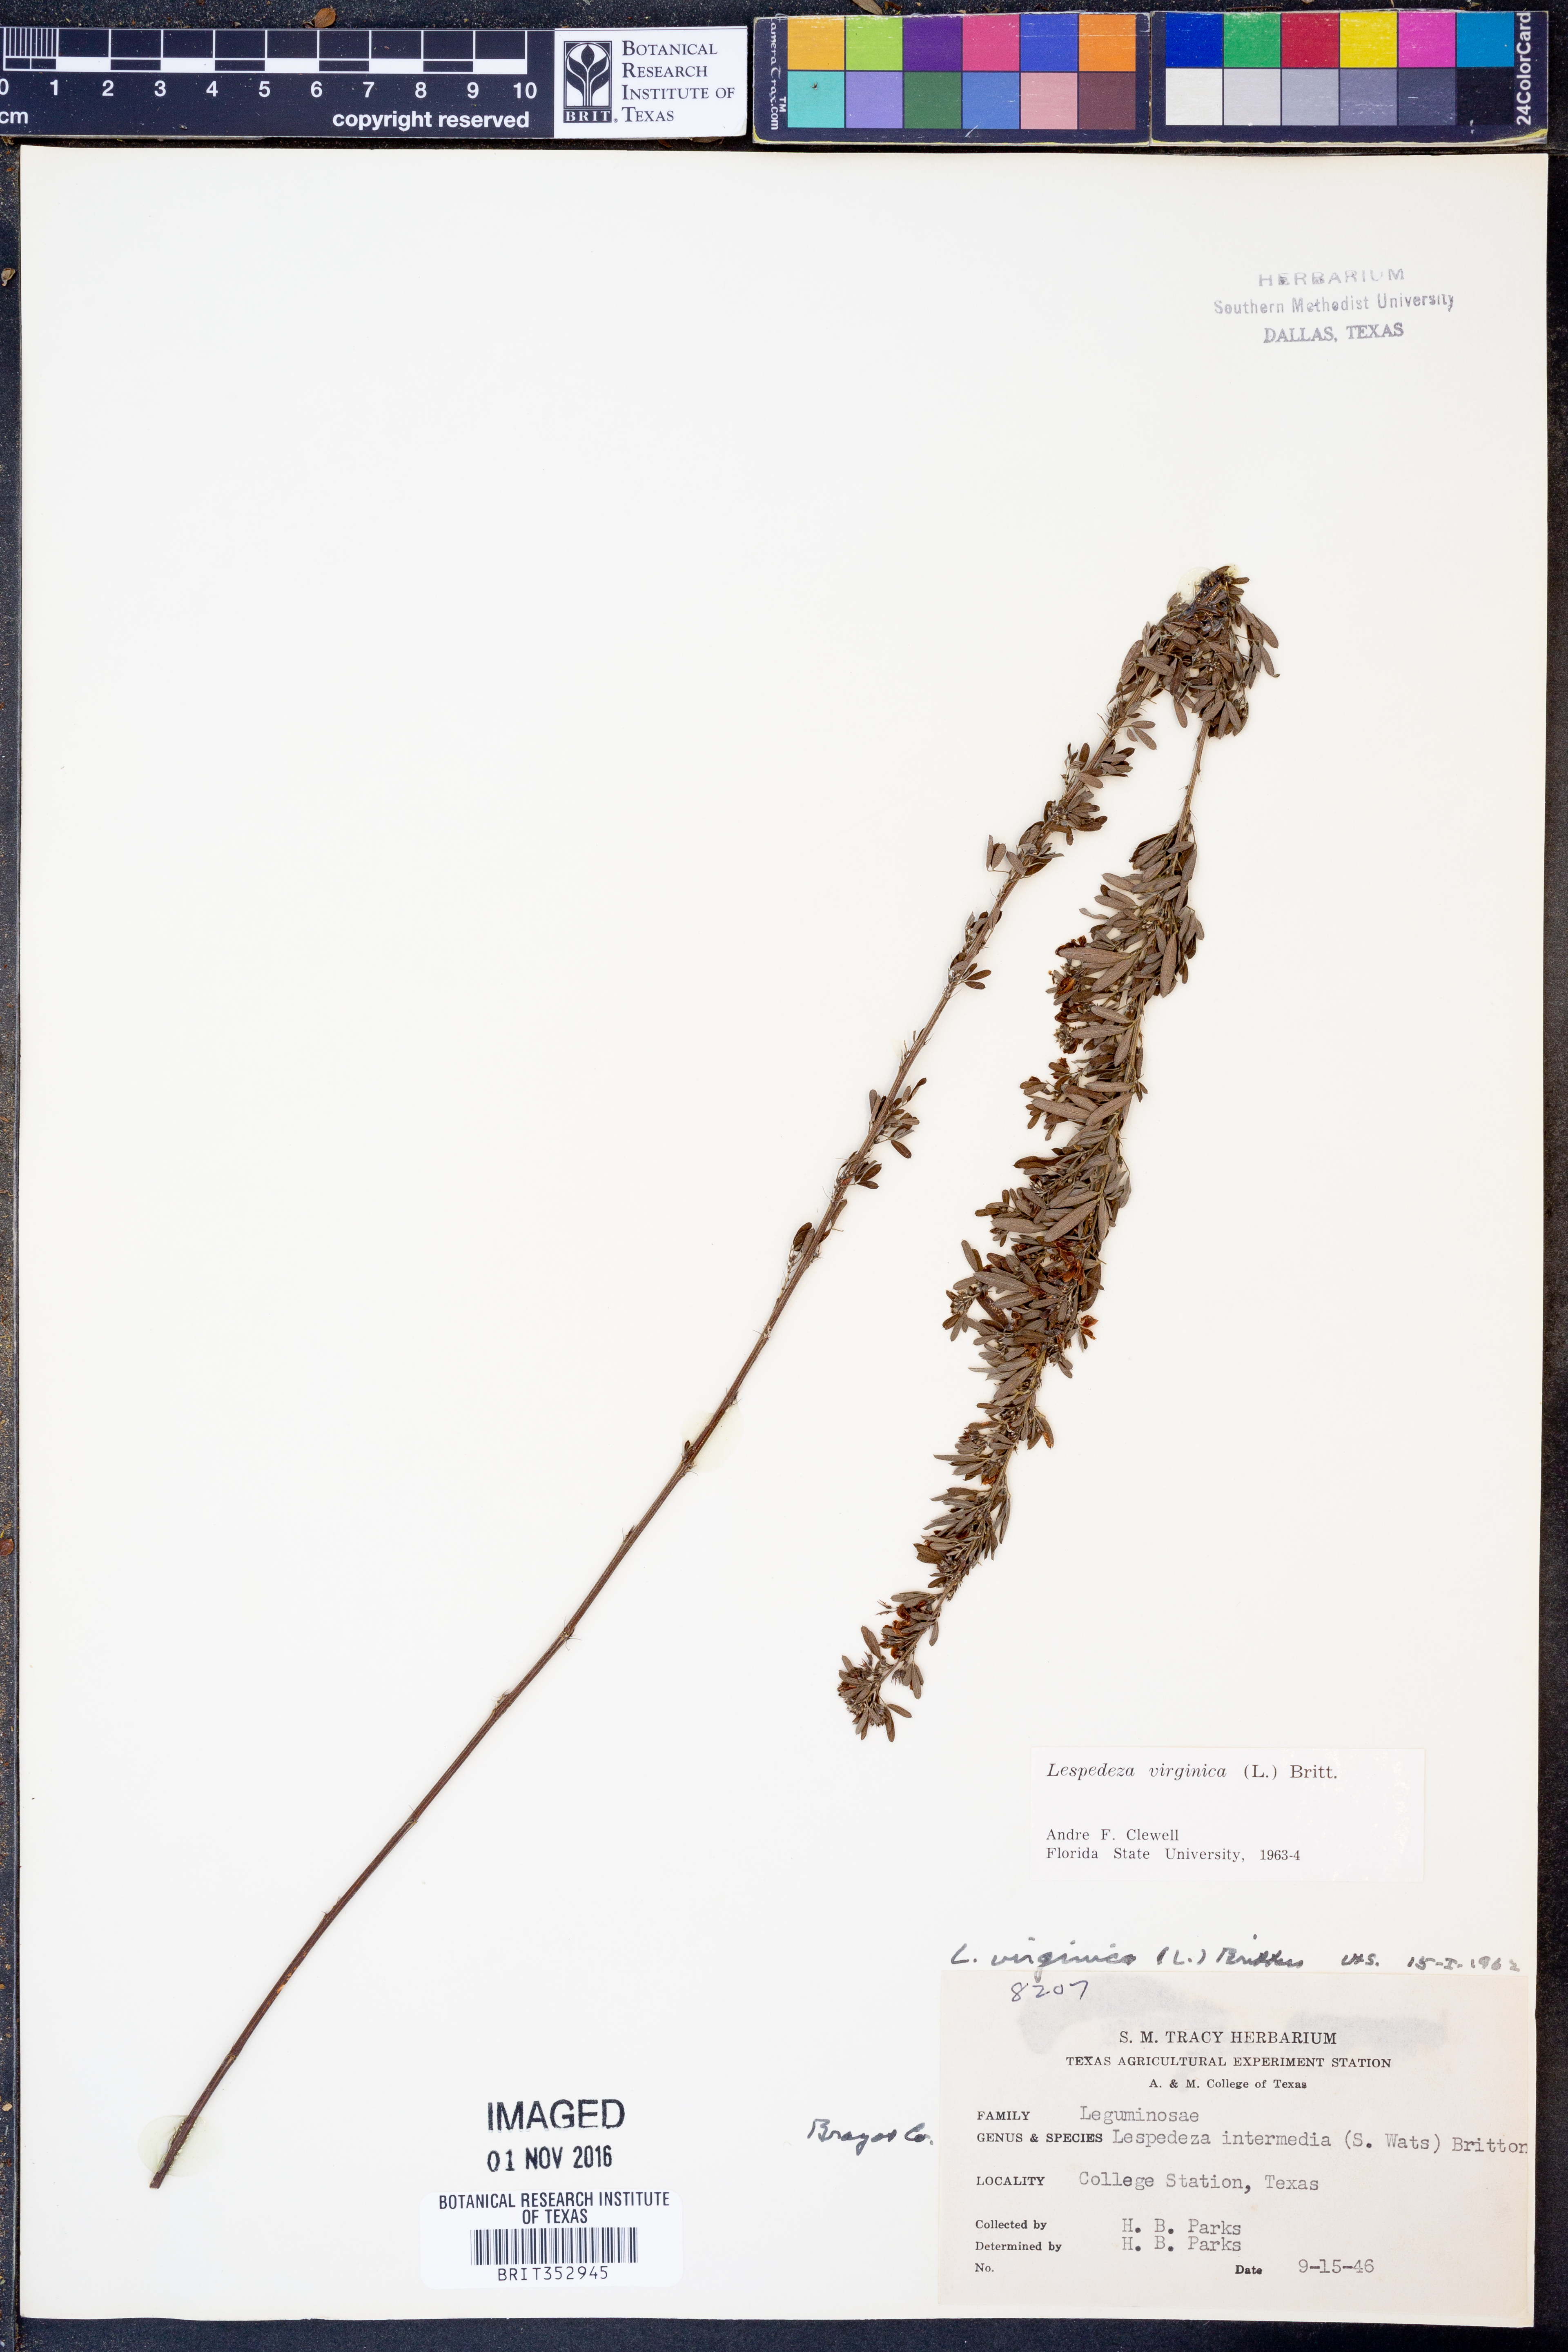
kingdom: Plantae
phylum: Tracheophyta
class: Magnoliopsida
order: Fabales
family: Fabaceae
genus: Lespedeza
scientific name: Lespedeza virginica
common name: Slender bush-clover
